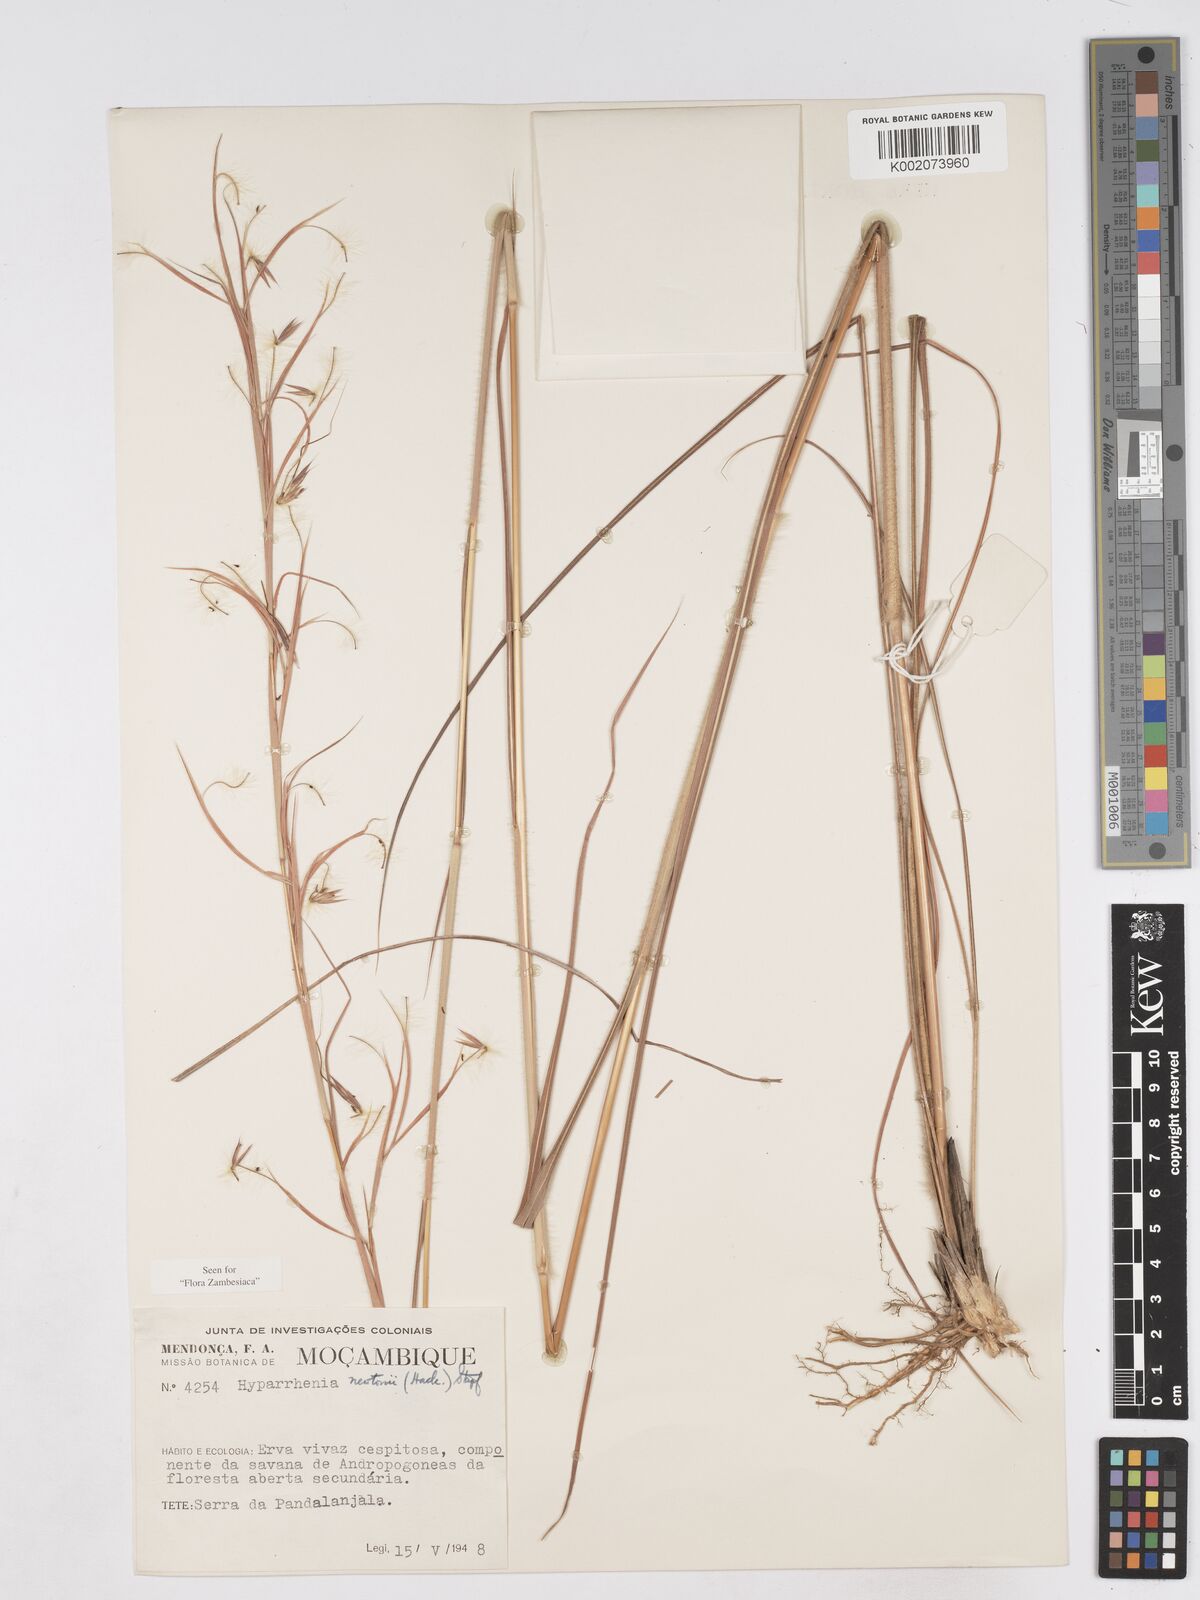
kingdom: Plantae
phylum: Tracheophyta
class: Liliopsida
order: Poales
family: Poaceae
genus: Hyparrhenia
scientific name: Hyparrhenia newtonii
